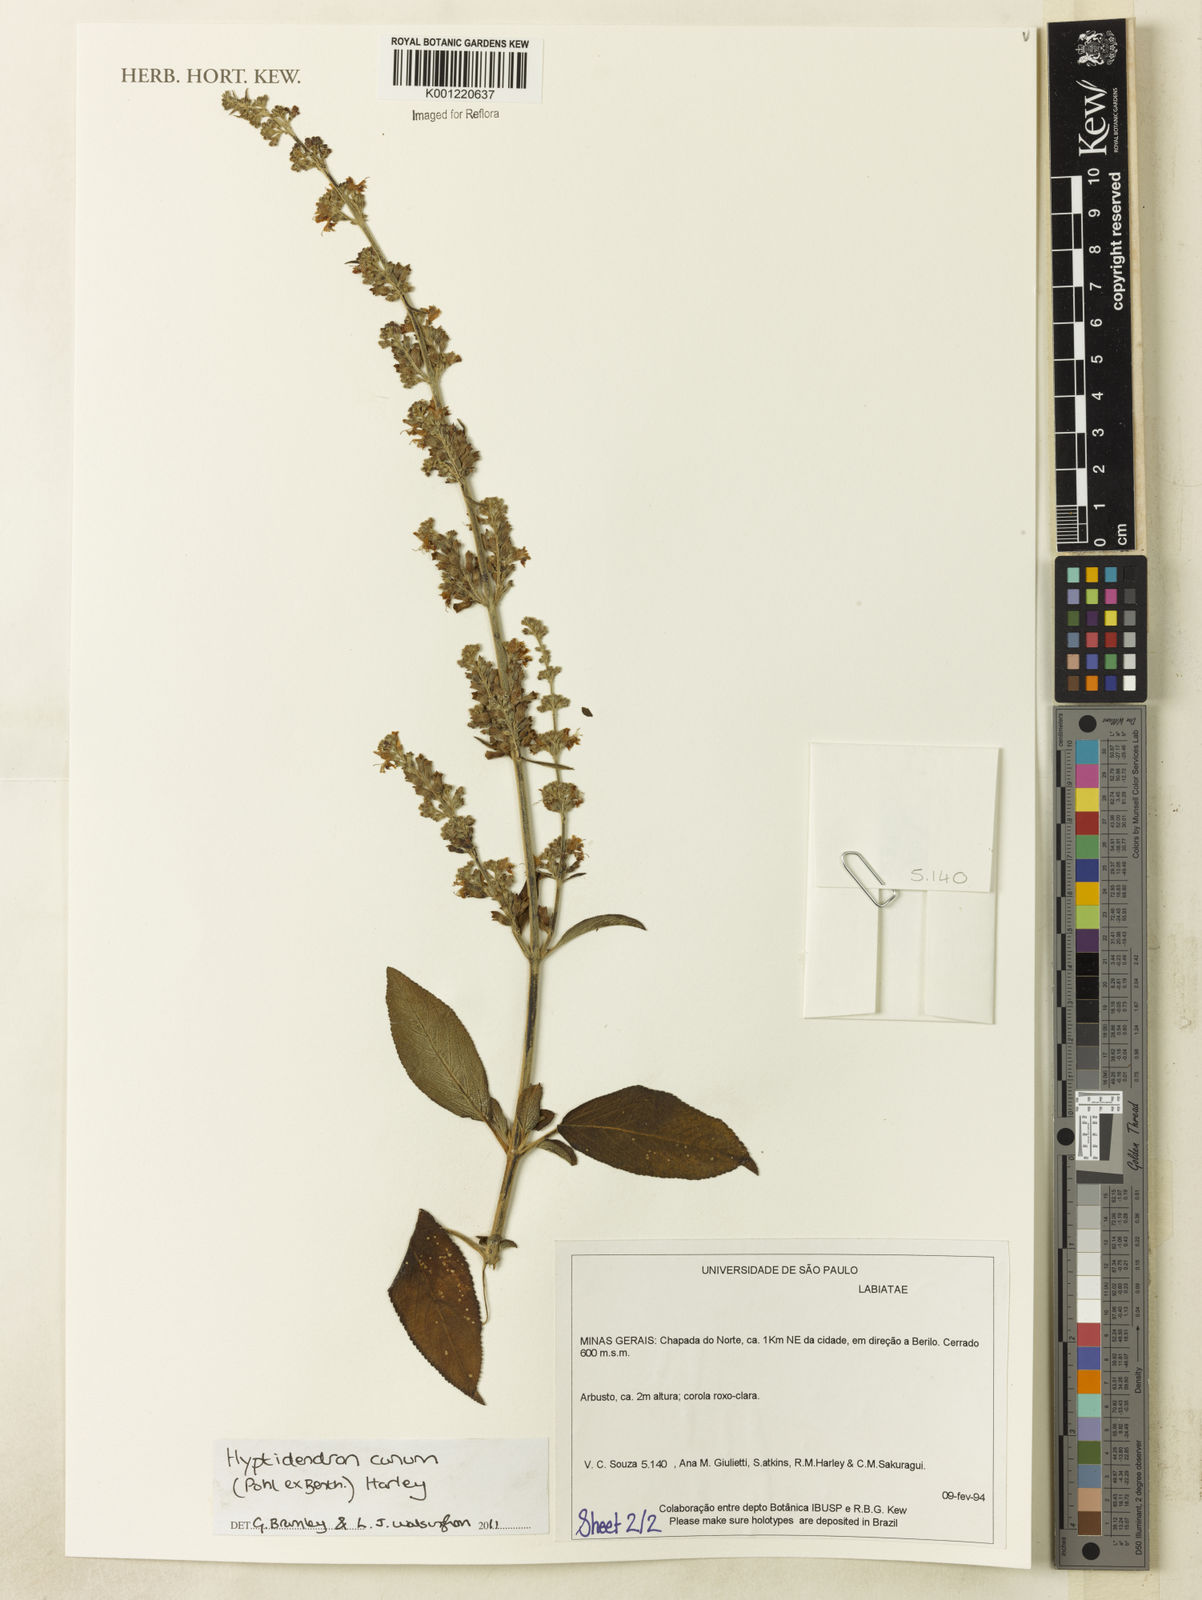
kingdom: Plantae
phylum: Tracheophyta
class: Magnoliopsida
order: Lamiales
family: Lamiaceae
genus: Hyptidendron
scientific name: Hyptidendron canum
